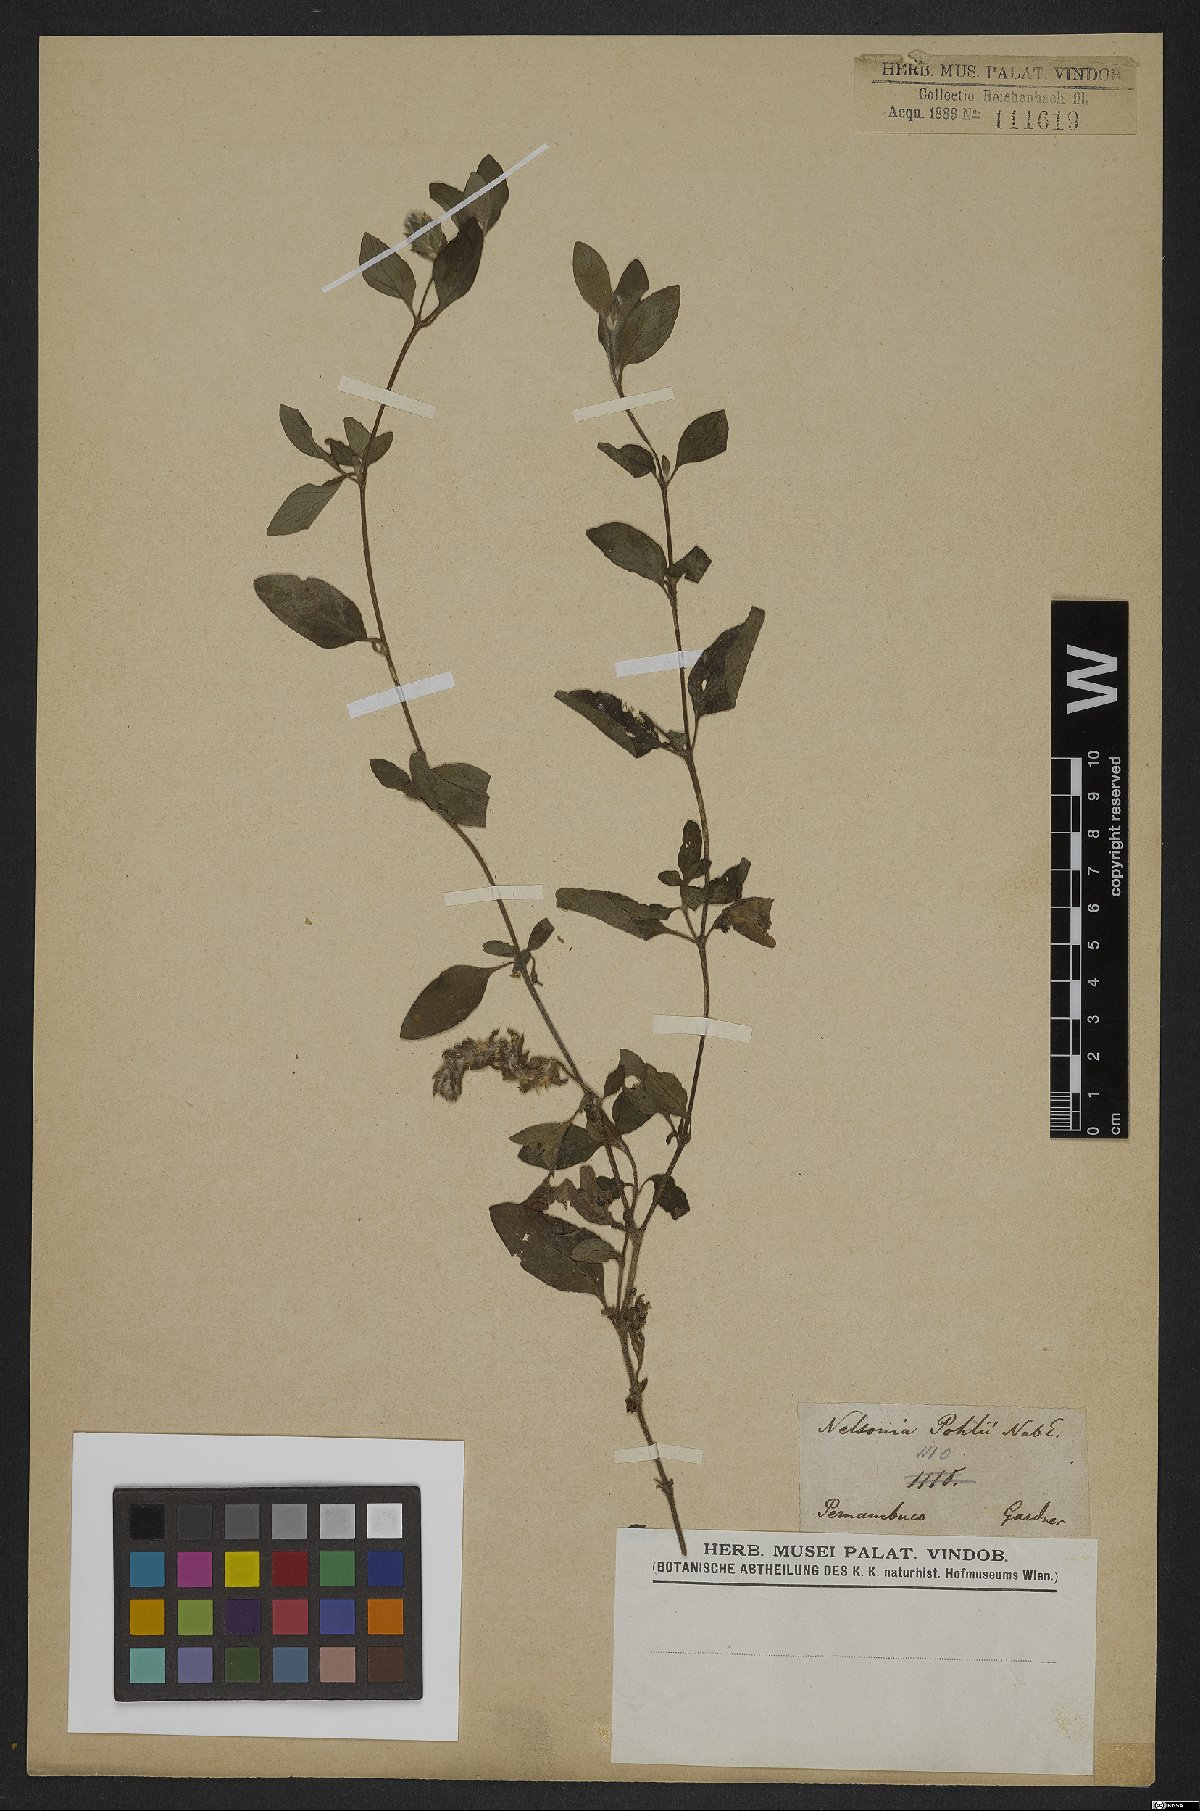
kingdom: Plantae
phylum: Tracheophyta
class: Magnoliopsida
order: Lamiales
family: Acanthaceae
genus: Nelsonia
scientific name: Nelsonia canescens
